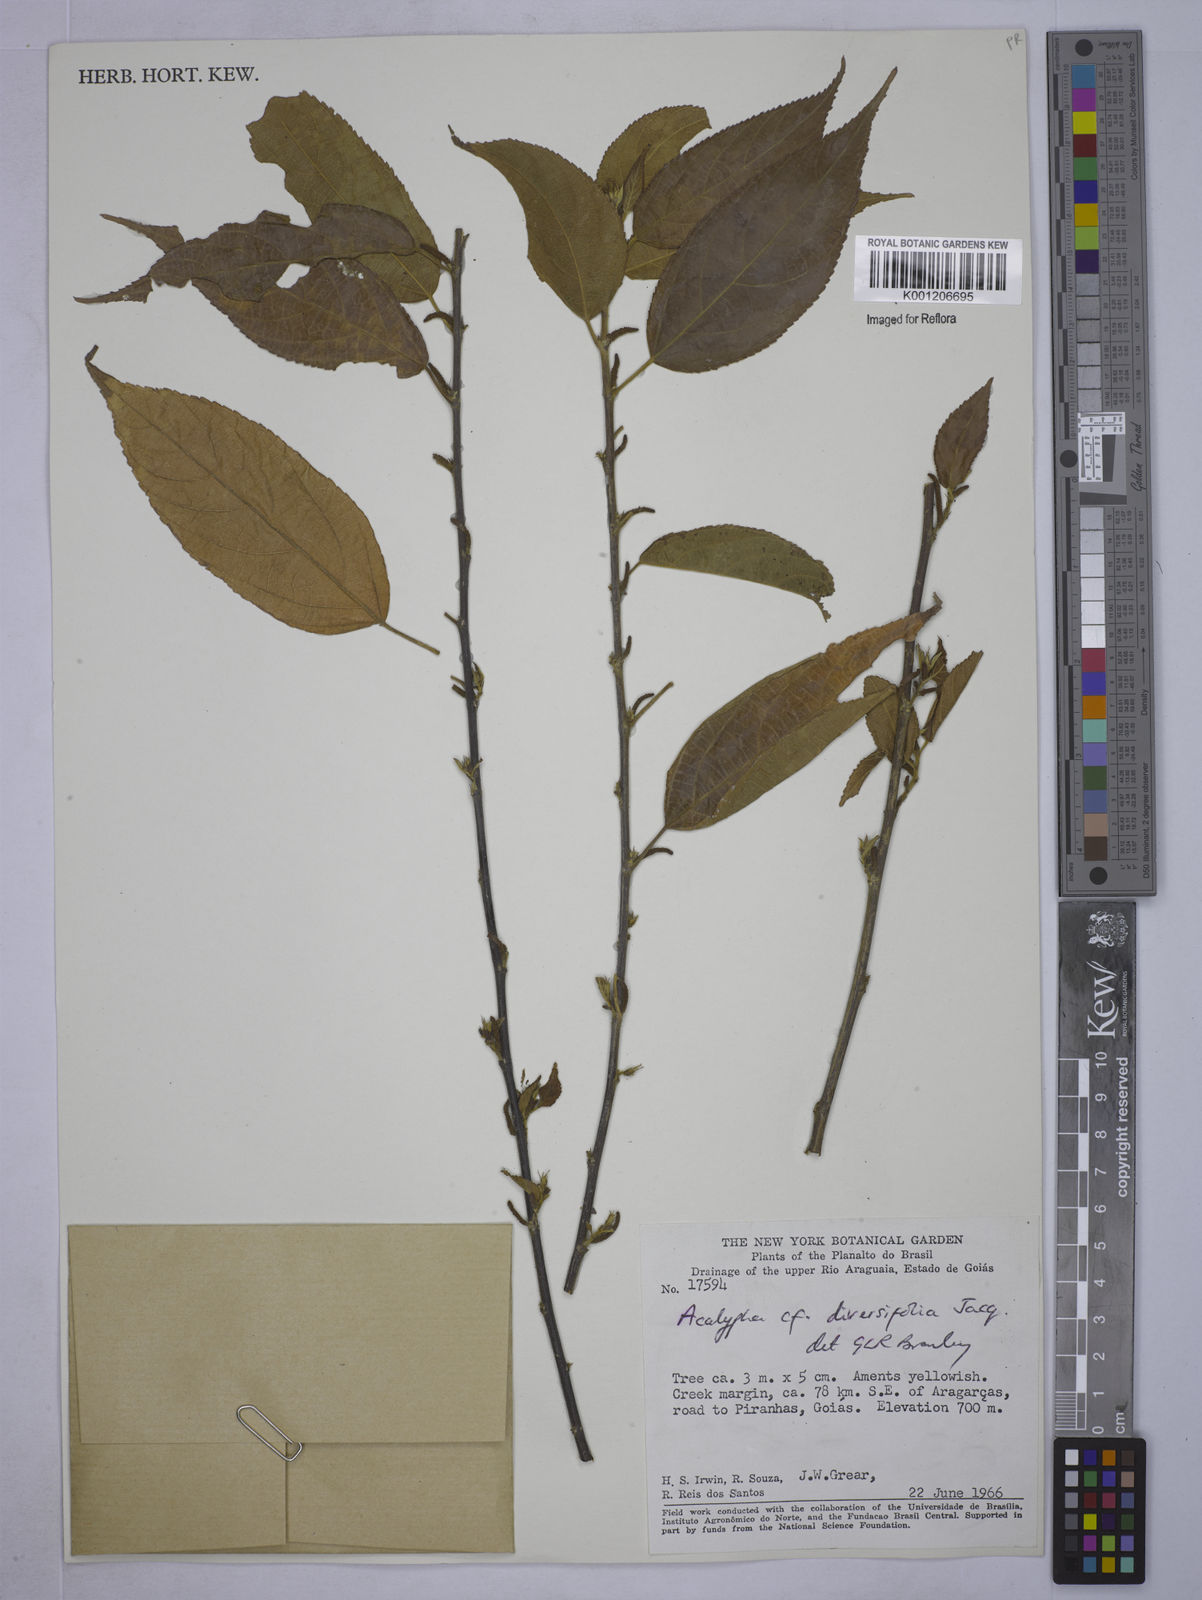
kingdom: Plantae
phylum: Tracheophyta
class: Magnoliopsida
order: Malpighiales
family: Euphorbiaceae
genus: Acalypha
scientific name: Acalypha diversifolia
